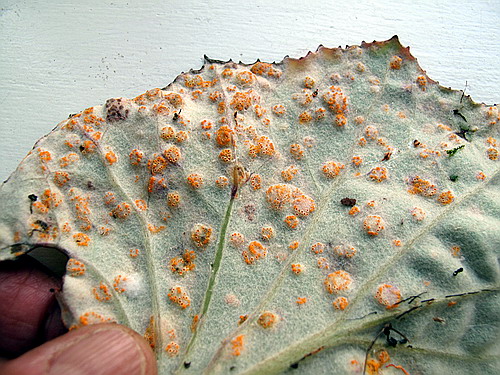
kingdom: Fungi
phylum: Basidiomycota
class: Pucciniomycetes
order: Pucciniales
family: Pucciniaceae
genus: Puccinia
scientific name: Puccinia poarum
